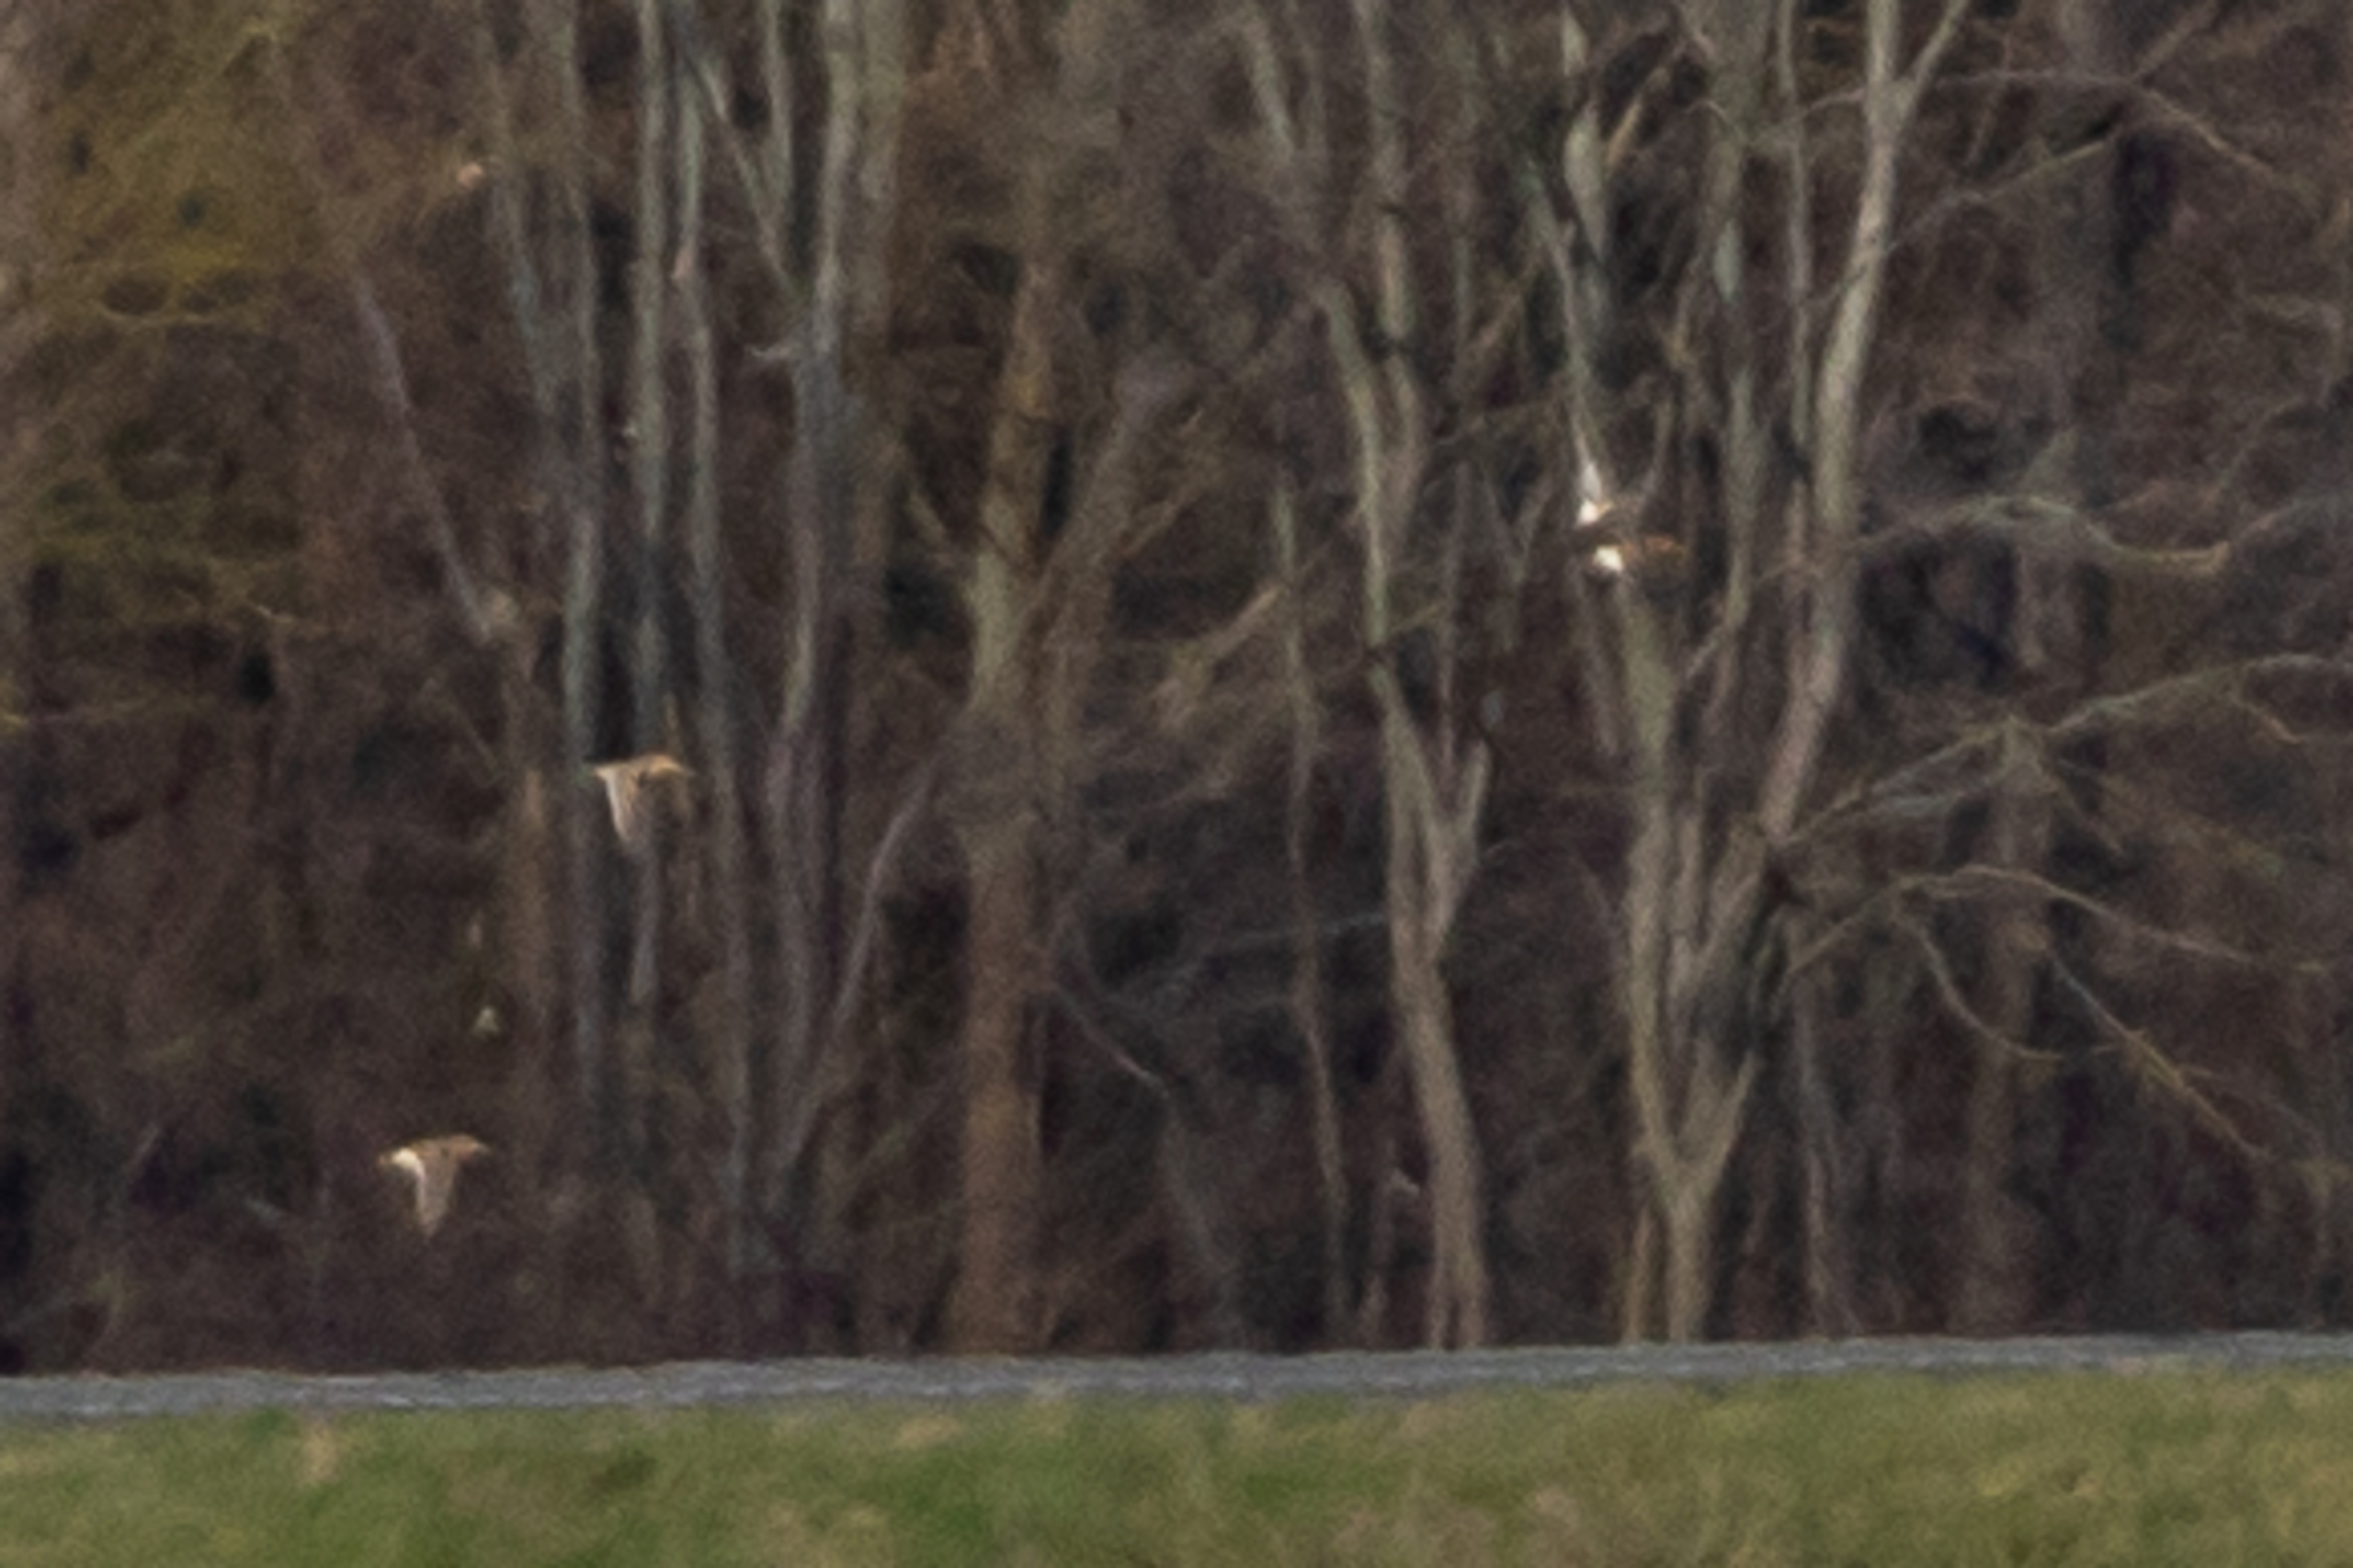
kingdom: Animalia
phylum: Chordata
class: Aves
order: Charadriiformes
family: Scolopacidae
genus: Gallinago
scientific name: Gallinago gallinago
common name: Dobbeltbekkasin
